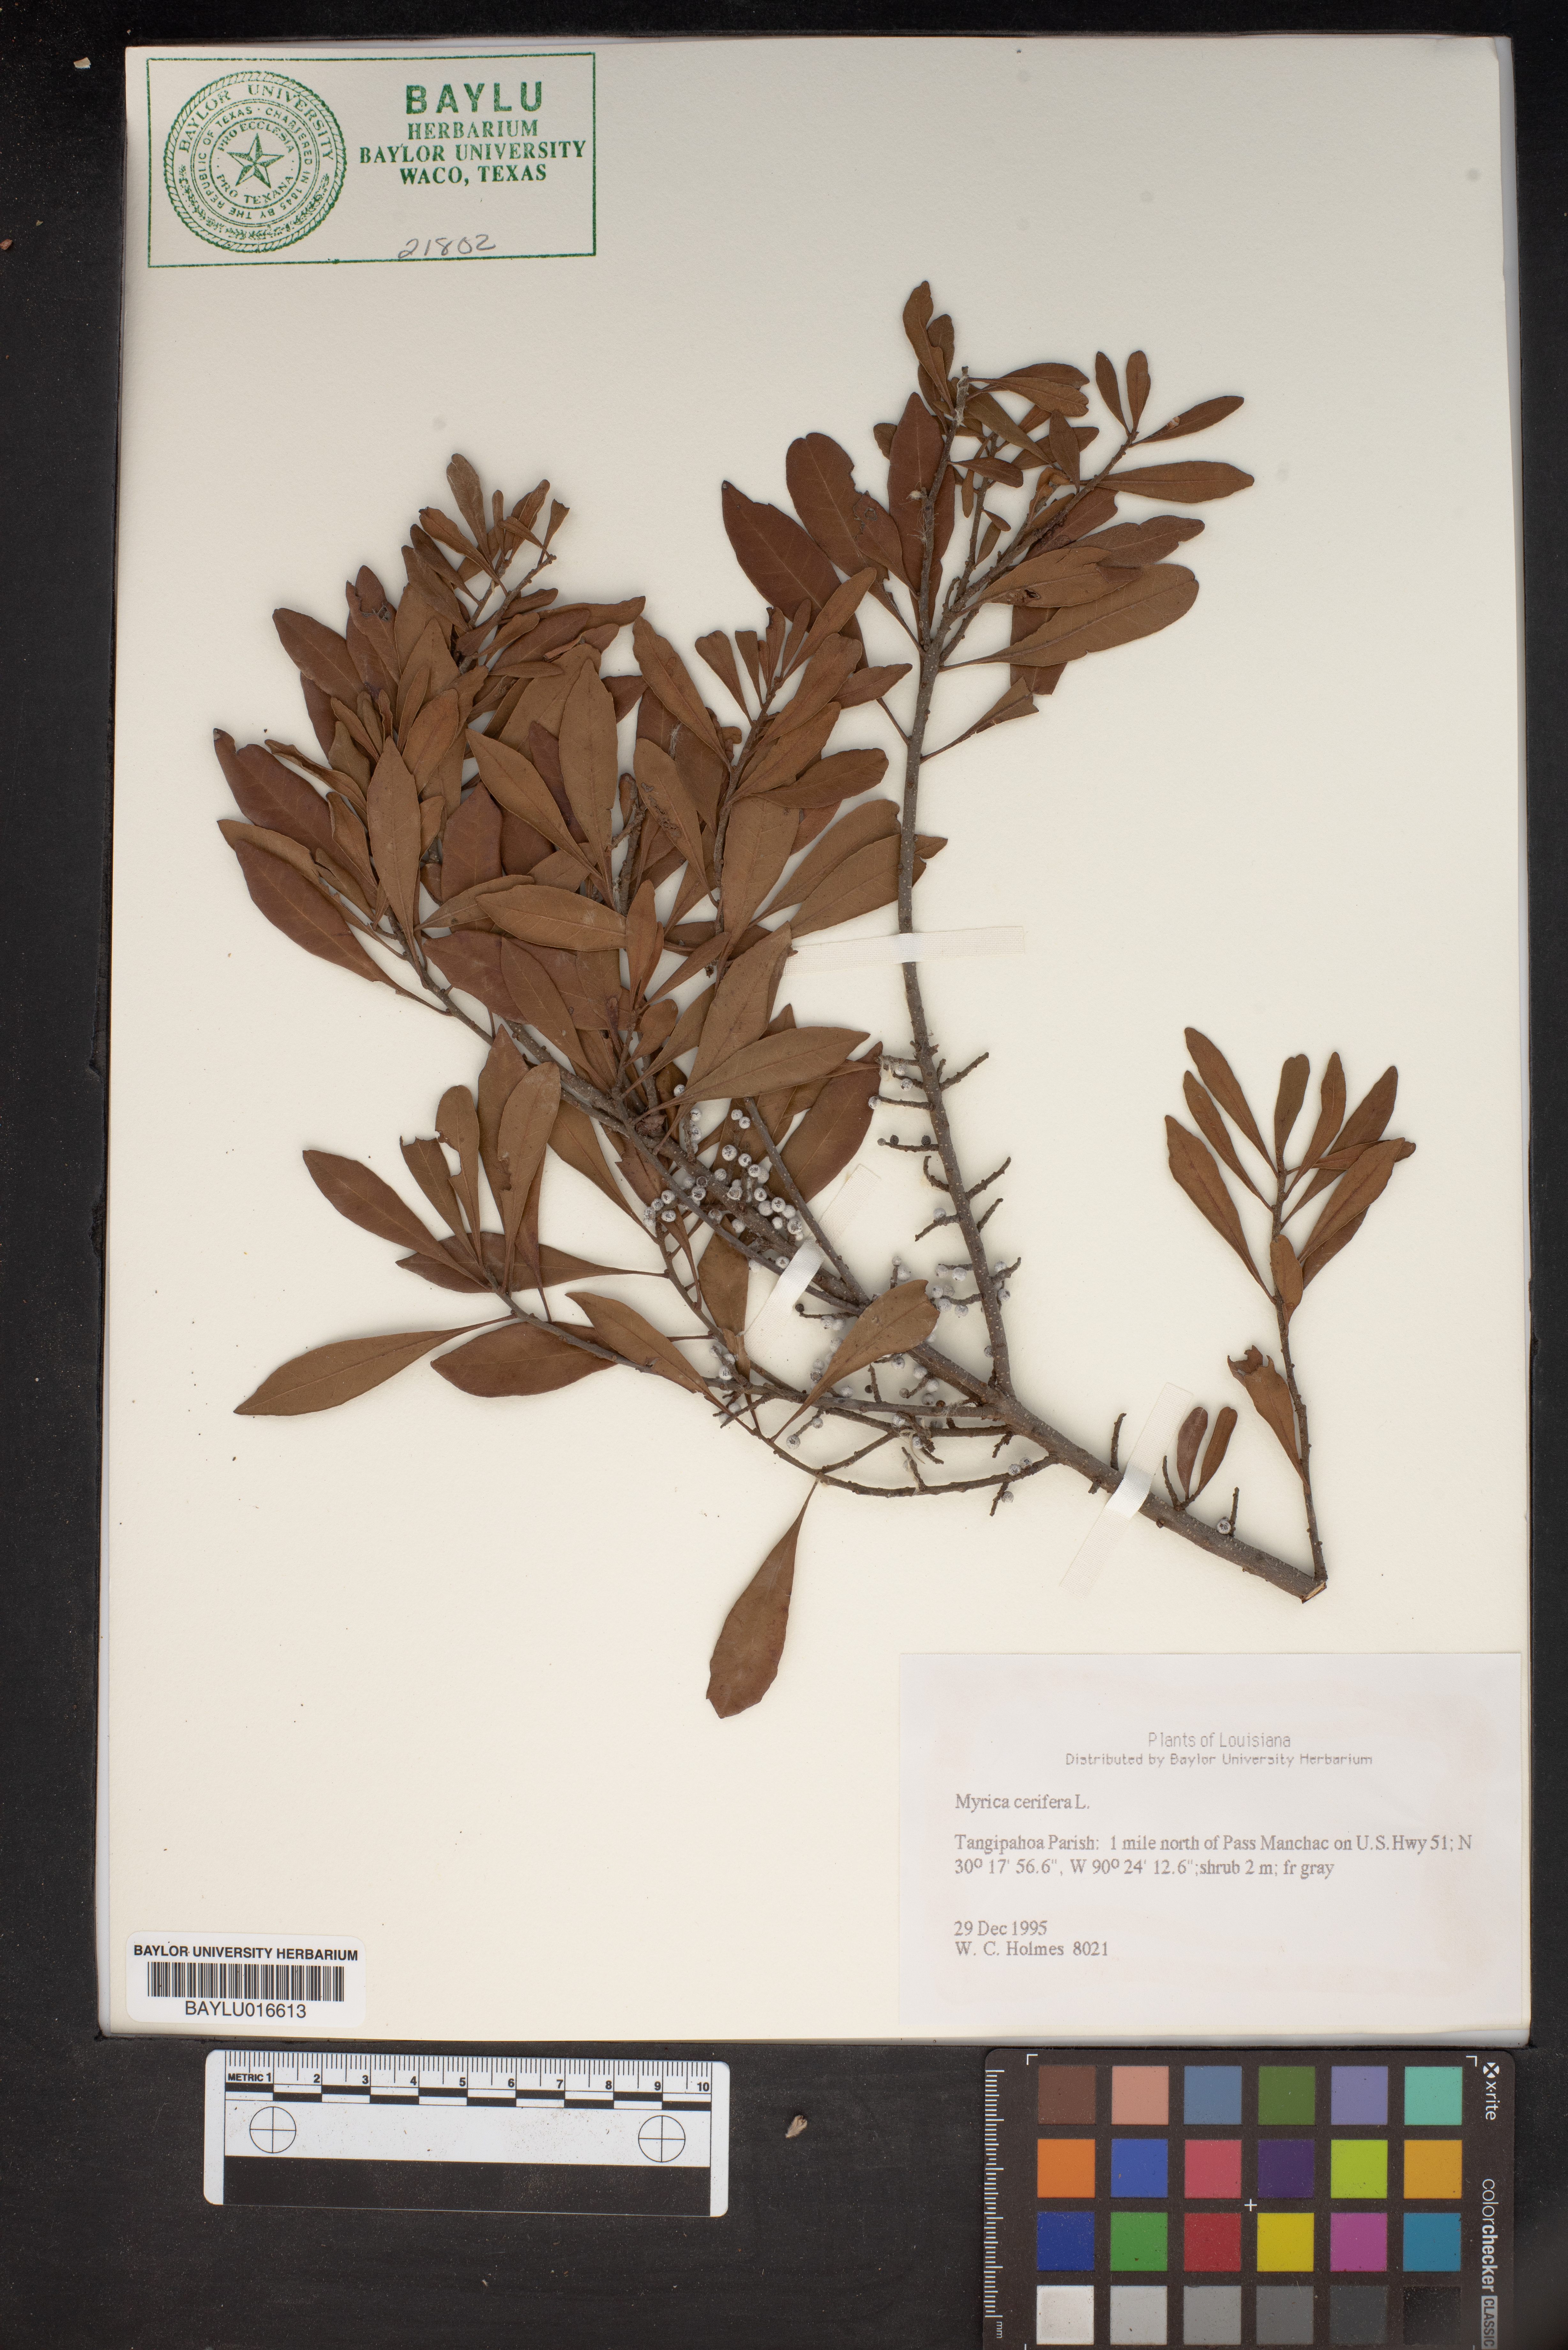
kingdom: Plantae
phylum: Tracheophyta
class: Magnoliopsida
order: Fagales
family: Myricaceae
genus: Morella
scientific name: Morella cerifera
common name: Wax myrtle
